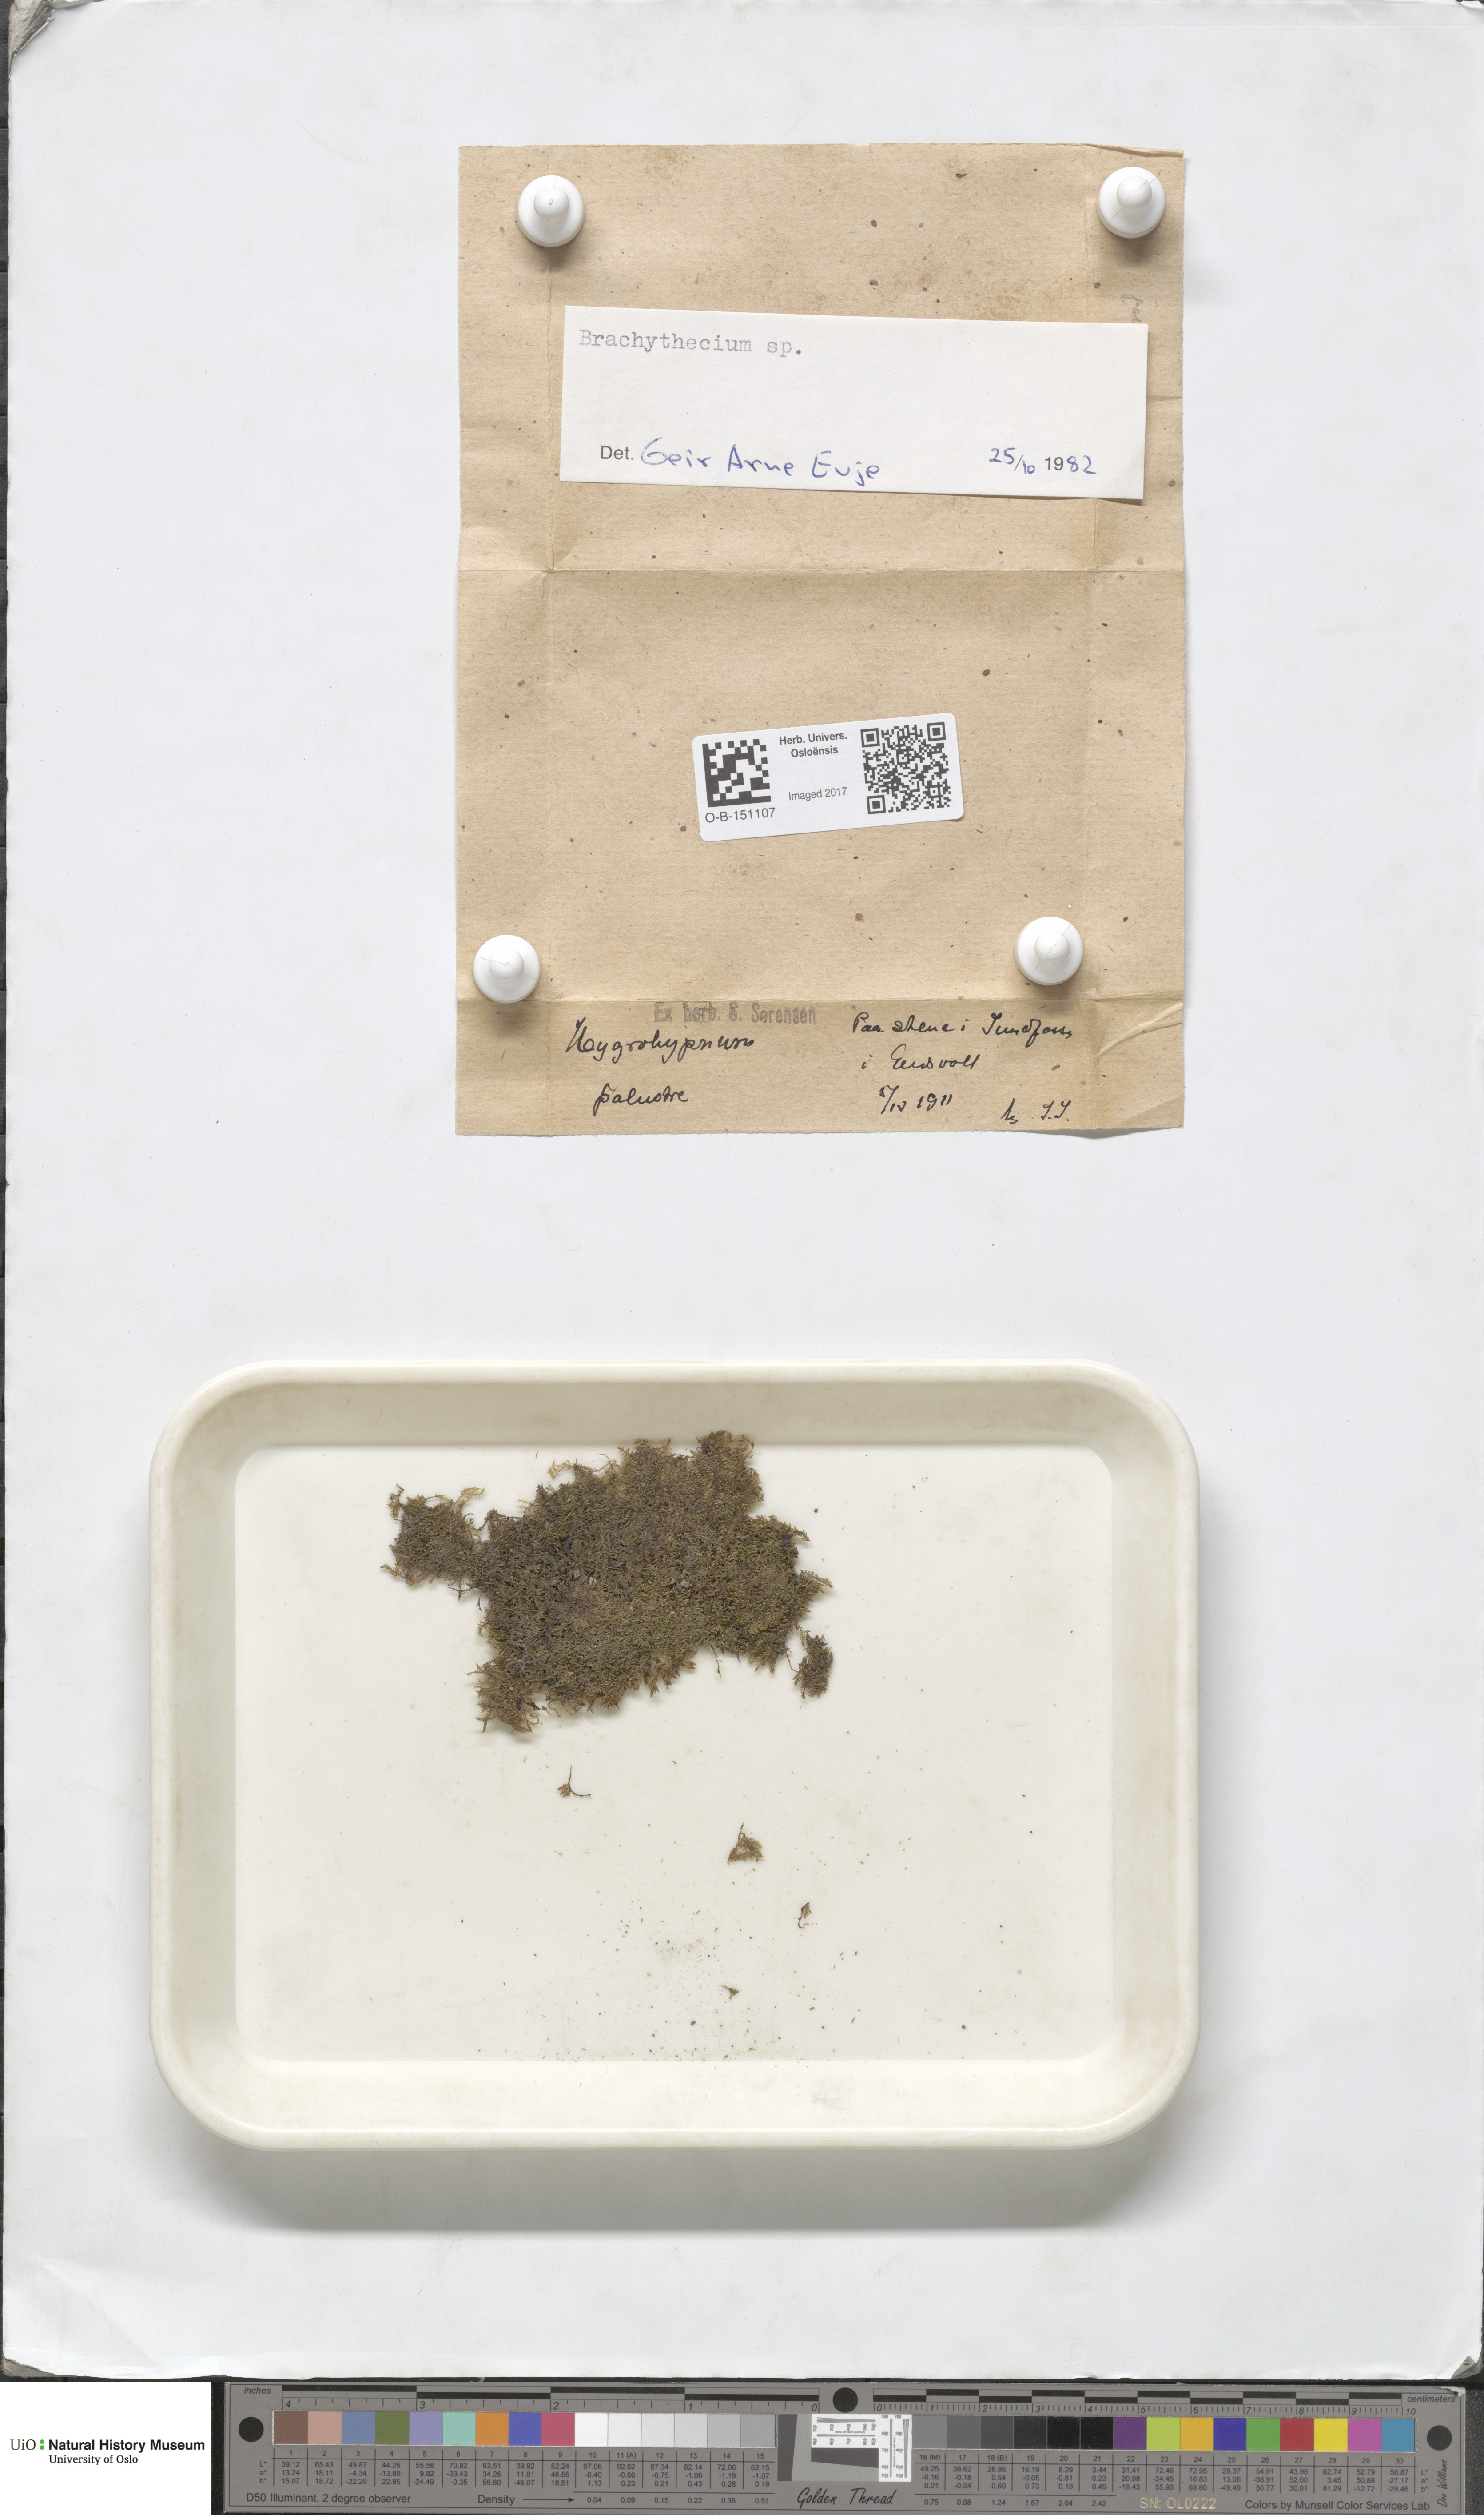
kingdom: Plantae
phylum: Bryophyta
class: Bryopsida
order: Hypnales
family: Brachytheciaceae
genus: Brachythecium
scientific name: Brachythecium
